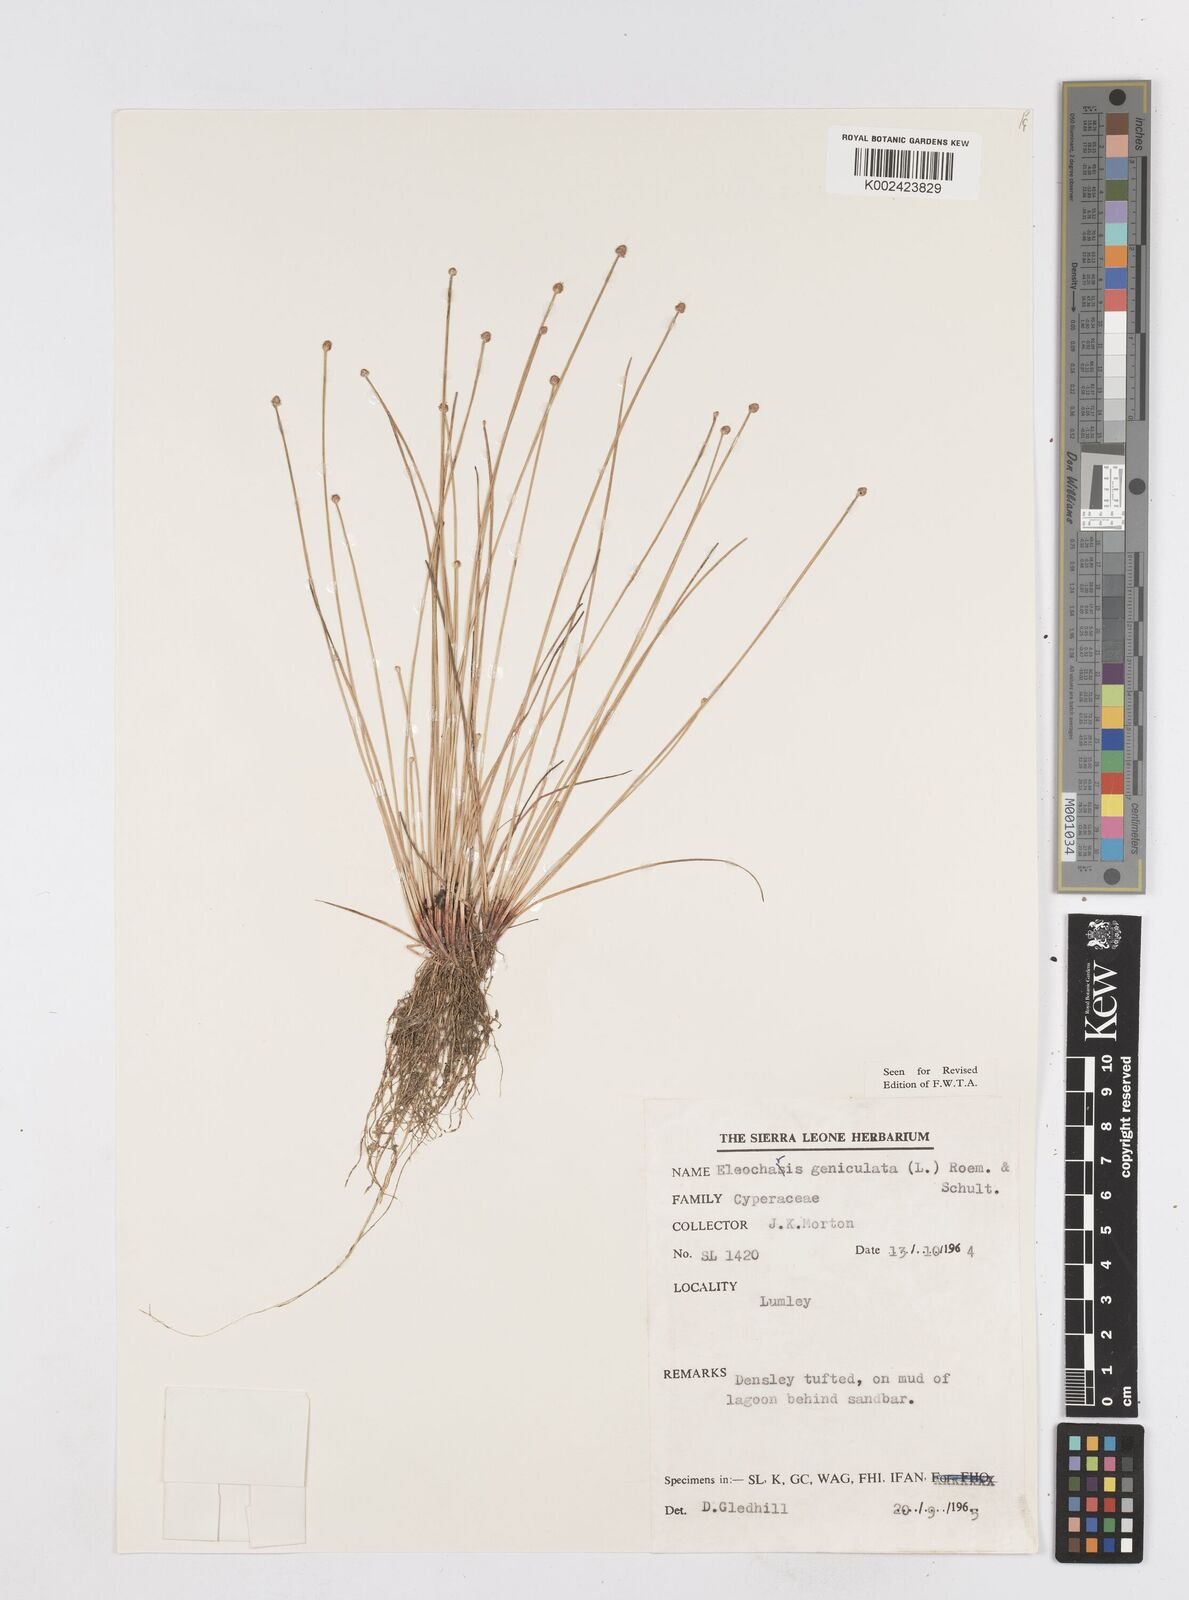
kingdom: Plantae
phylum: Tracheophyta
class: Liliopsida
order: Poales
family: Cyperaceae
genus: Eleocharis
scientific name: Eleocharis geniculata
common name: Canada spikesedge
